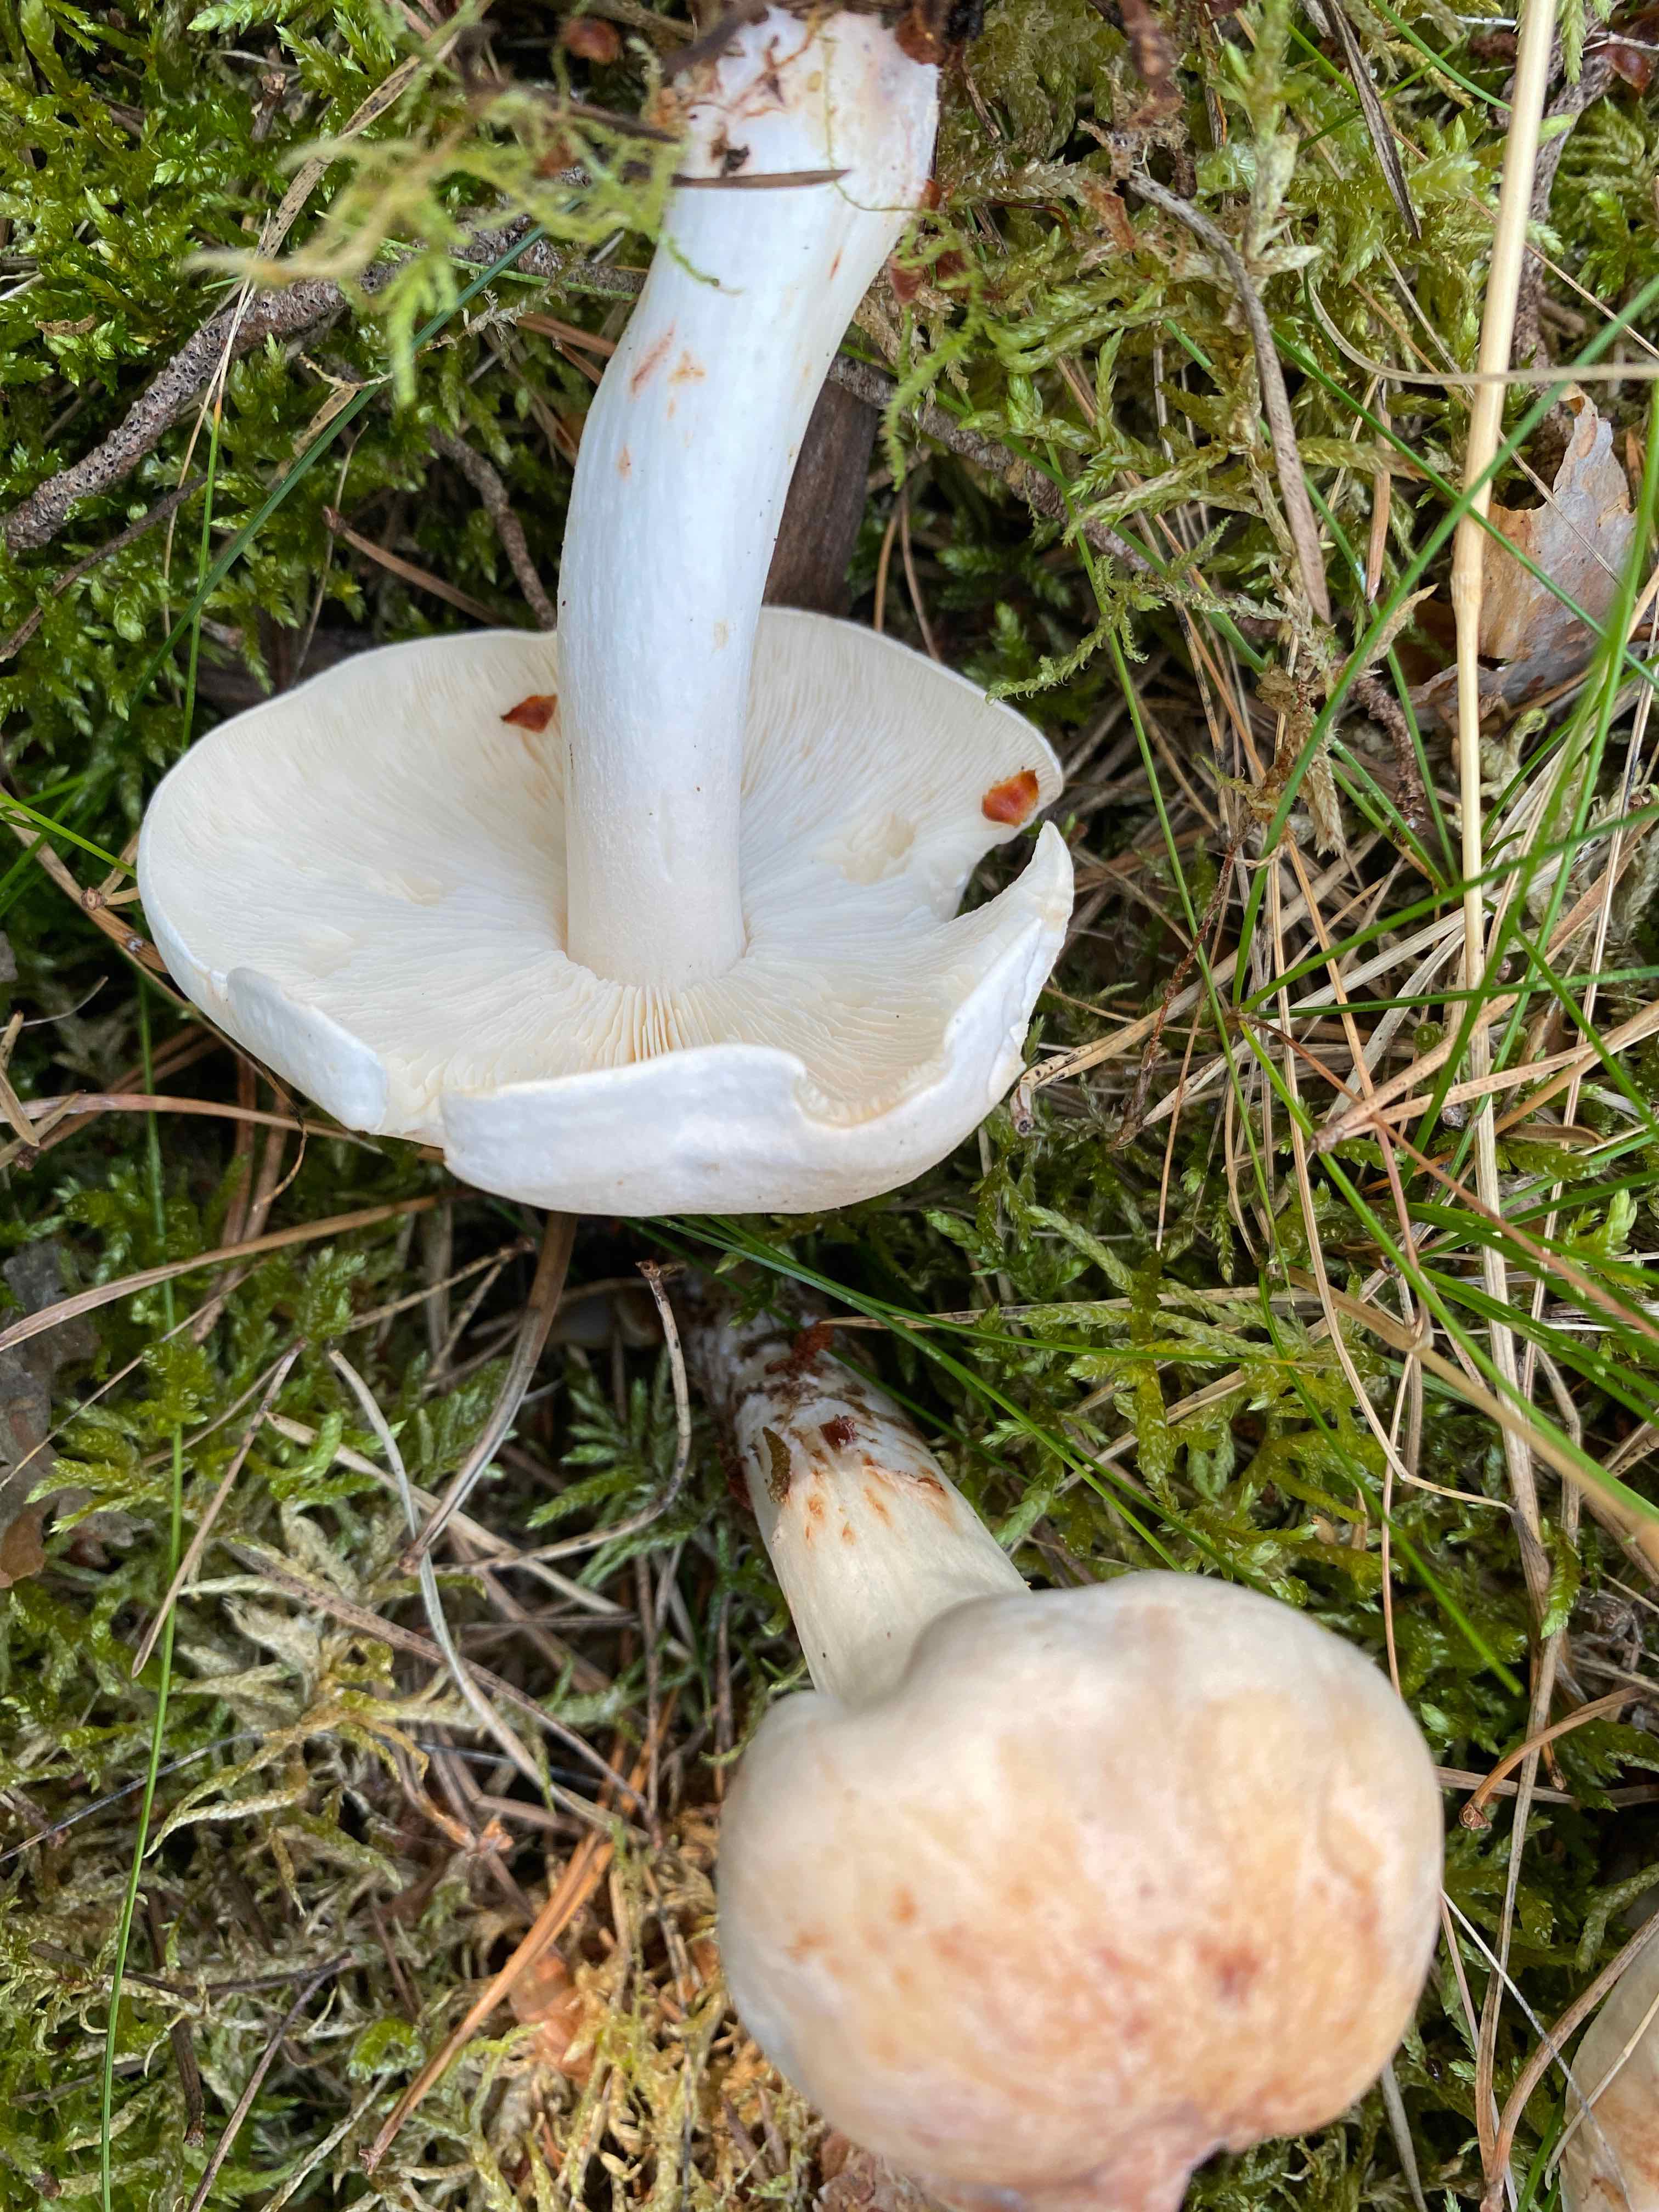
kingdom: Fungi
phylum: Basidiomycota
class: Agaricomycetes
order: Agaricales
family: Omphalotaceae
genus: Rhodocollybia
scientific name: Rhodocollybia maculata
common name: plettet fladhat
